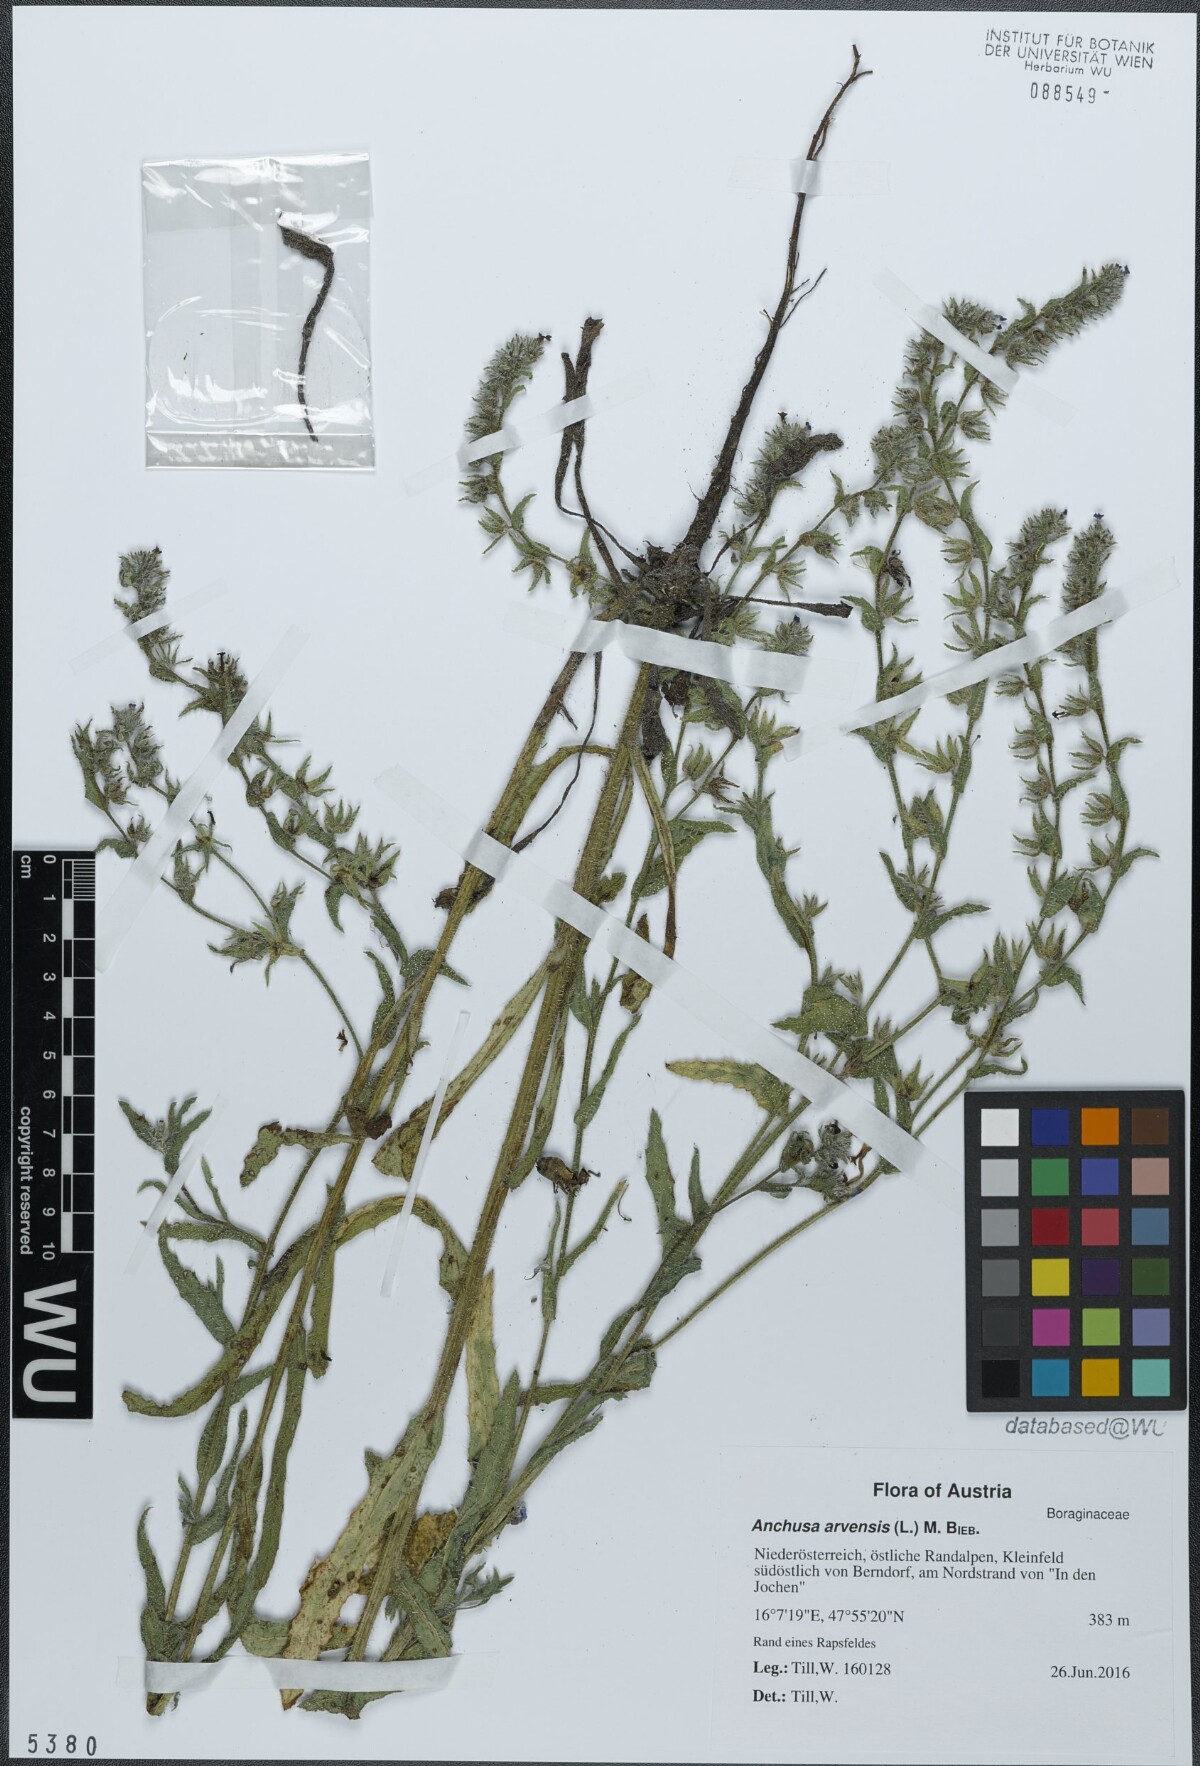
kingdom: Plantae
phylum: Tracheophyta
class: Magnoliopsida
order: Boraginales
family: Boraginaceae
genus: Lycopsis
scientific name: Lycopsis arvensis
